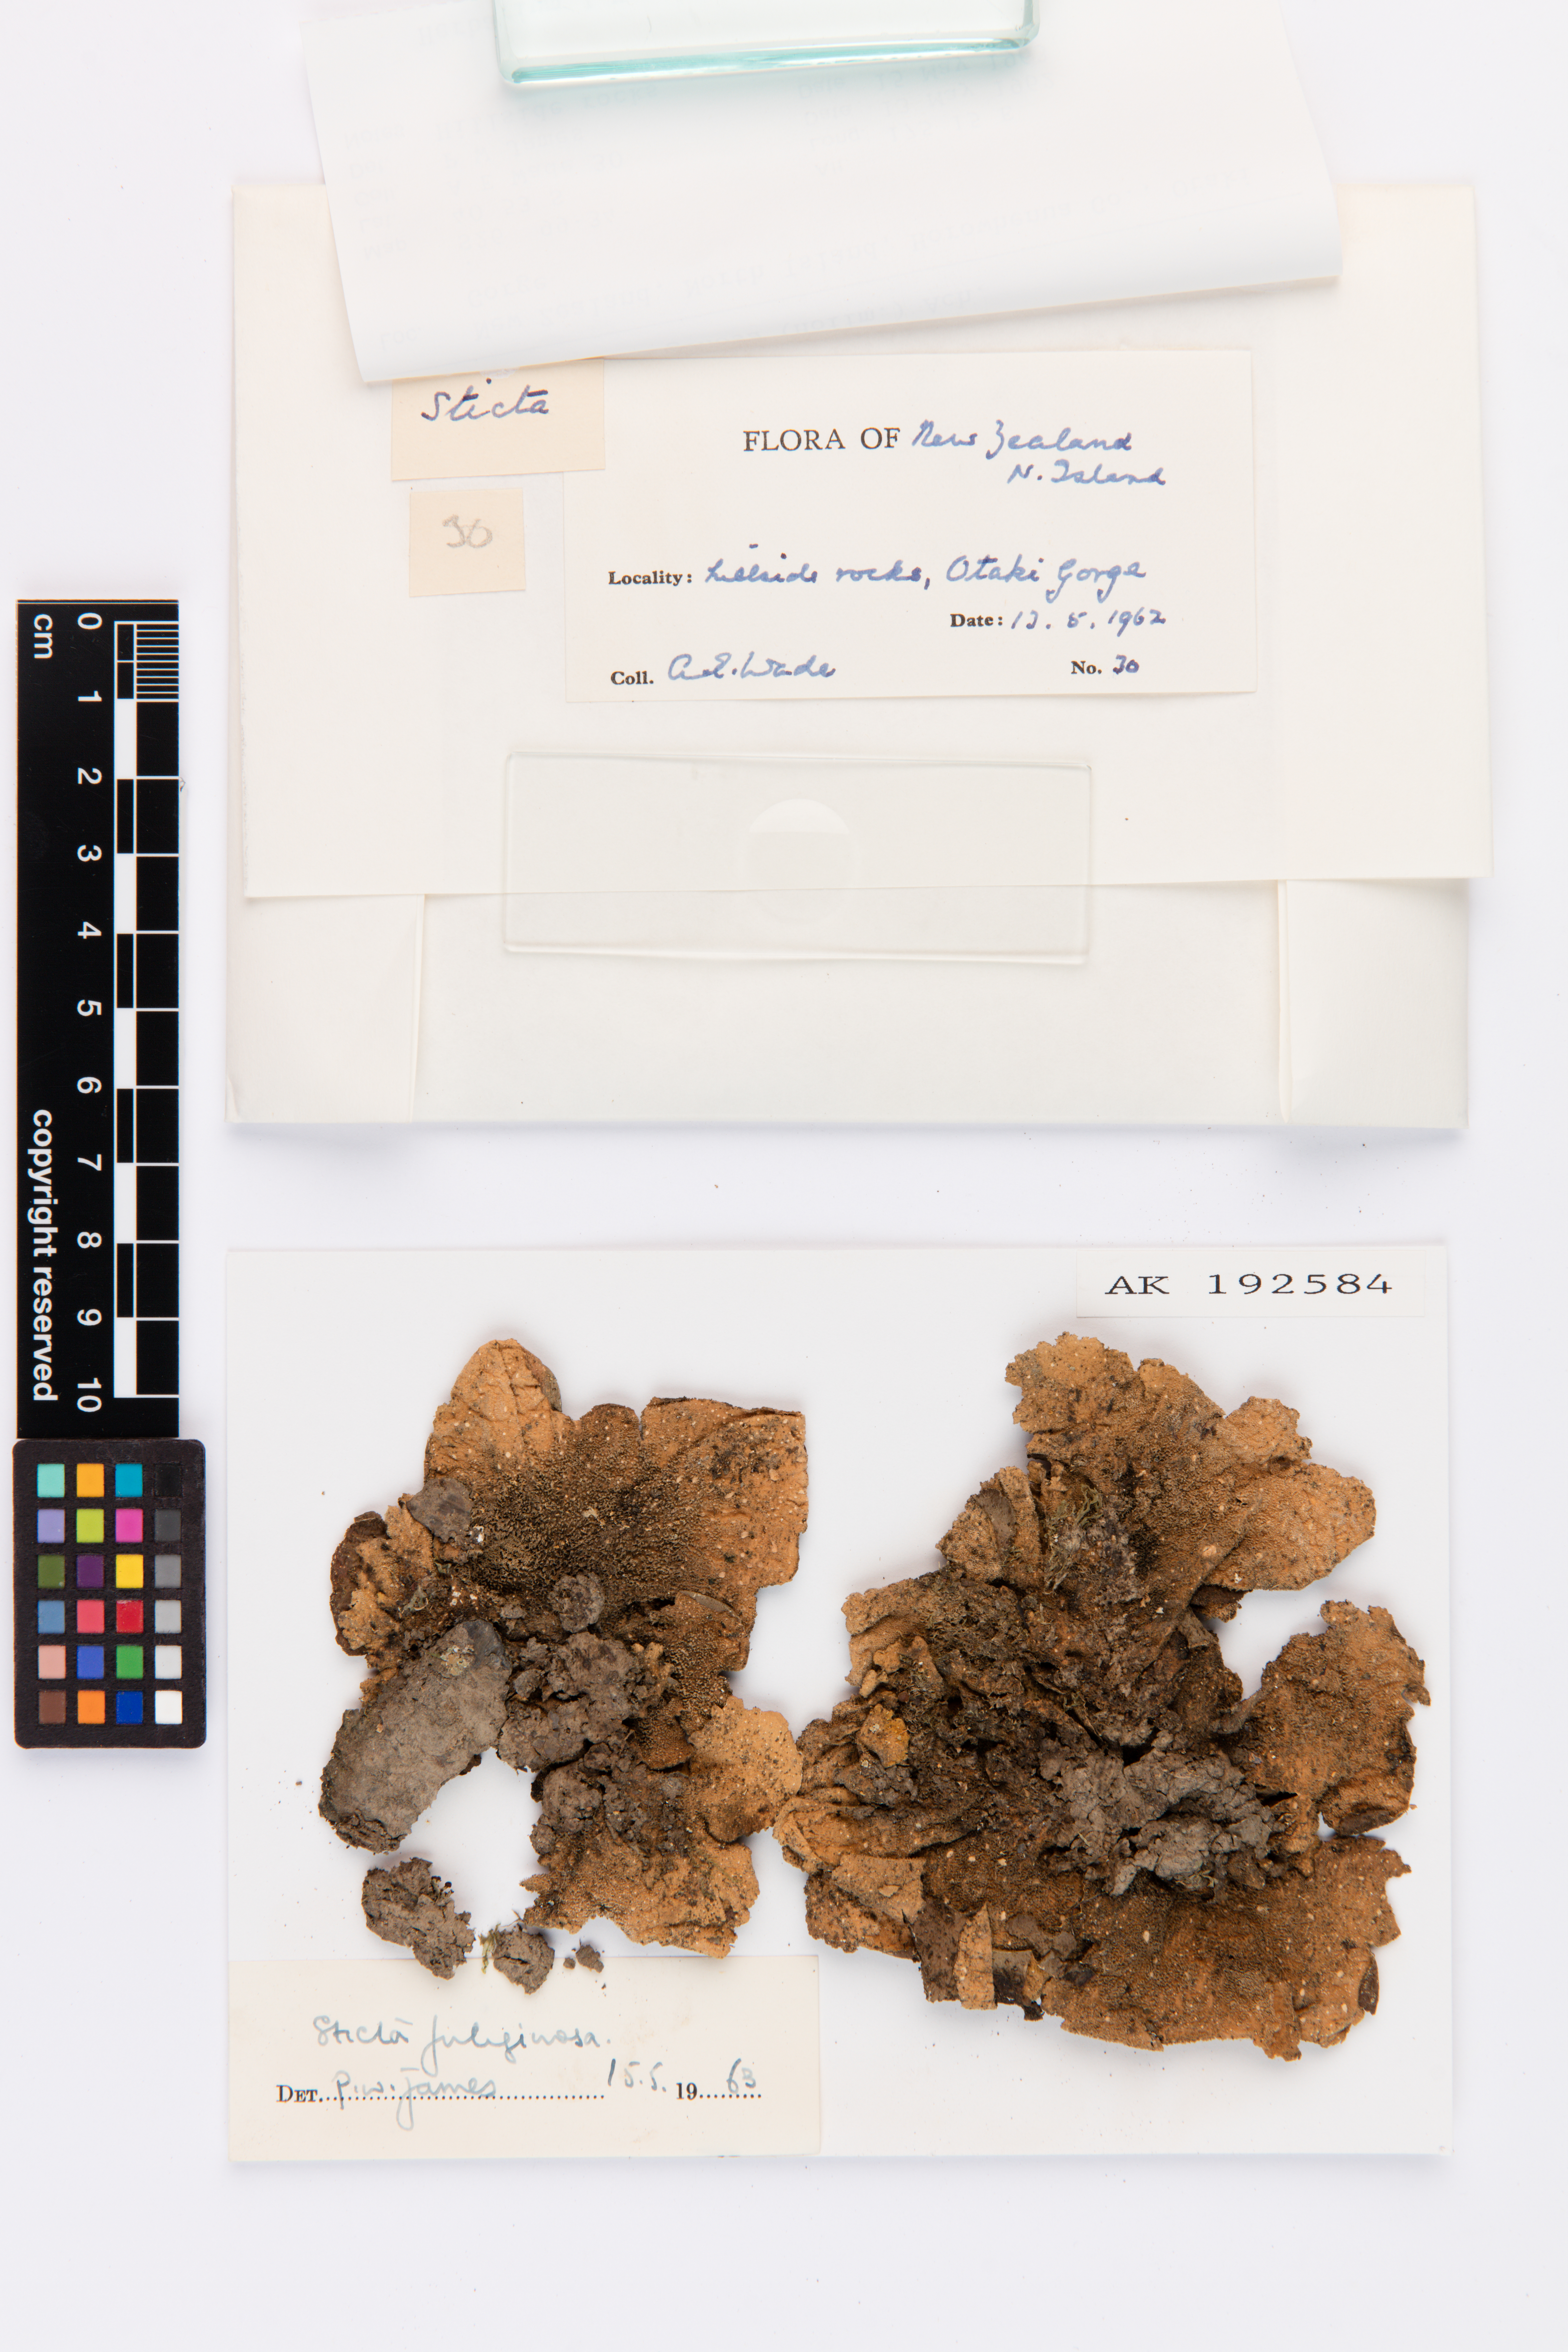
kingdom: Fungi
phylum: Ascomycota
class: Lecanoromycetes
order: Peltigerales
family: Lobariaceae
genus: Sticta
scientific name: Sticta fuliginosa
